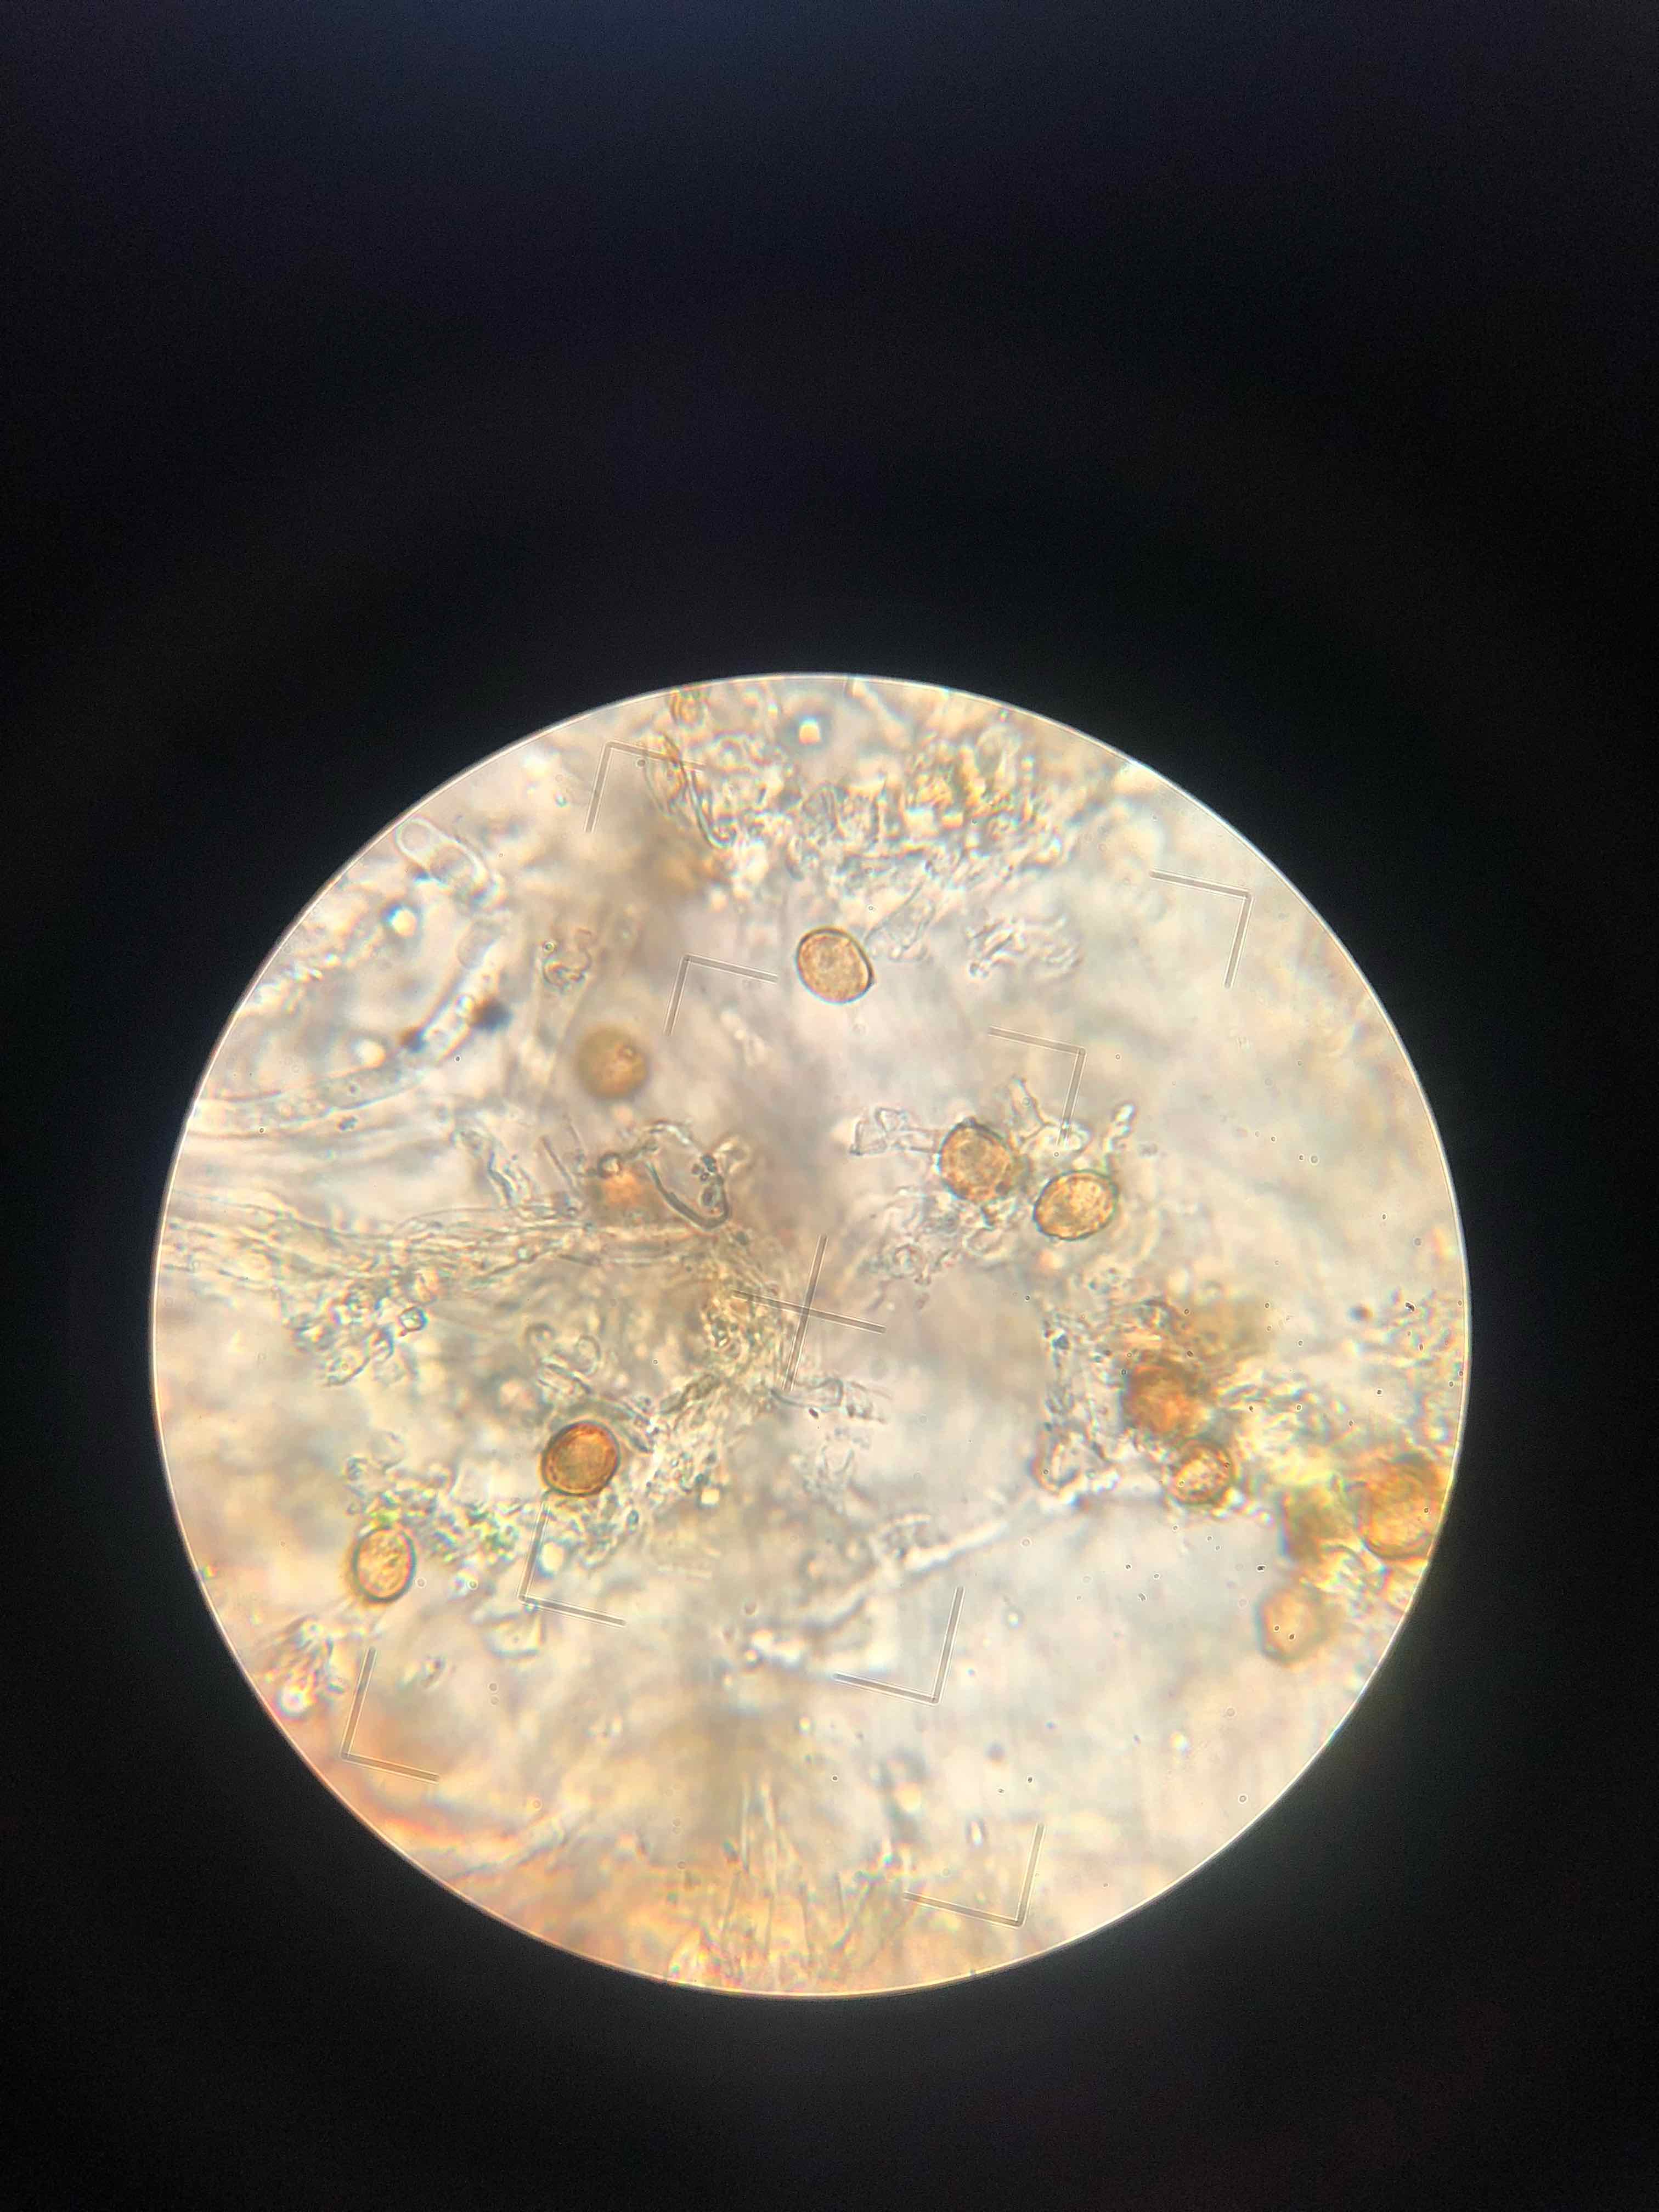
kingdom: Fungi
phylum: Basidiomycota
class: Agaricomycetes
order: Agaricales
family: Chromocyphellaceae
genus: Chromocyphella
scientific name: Chromocyphella muscicola
